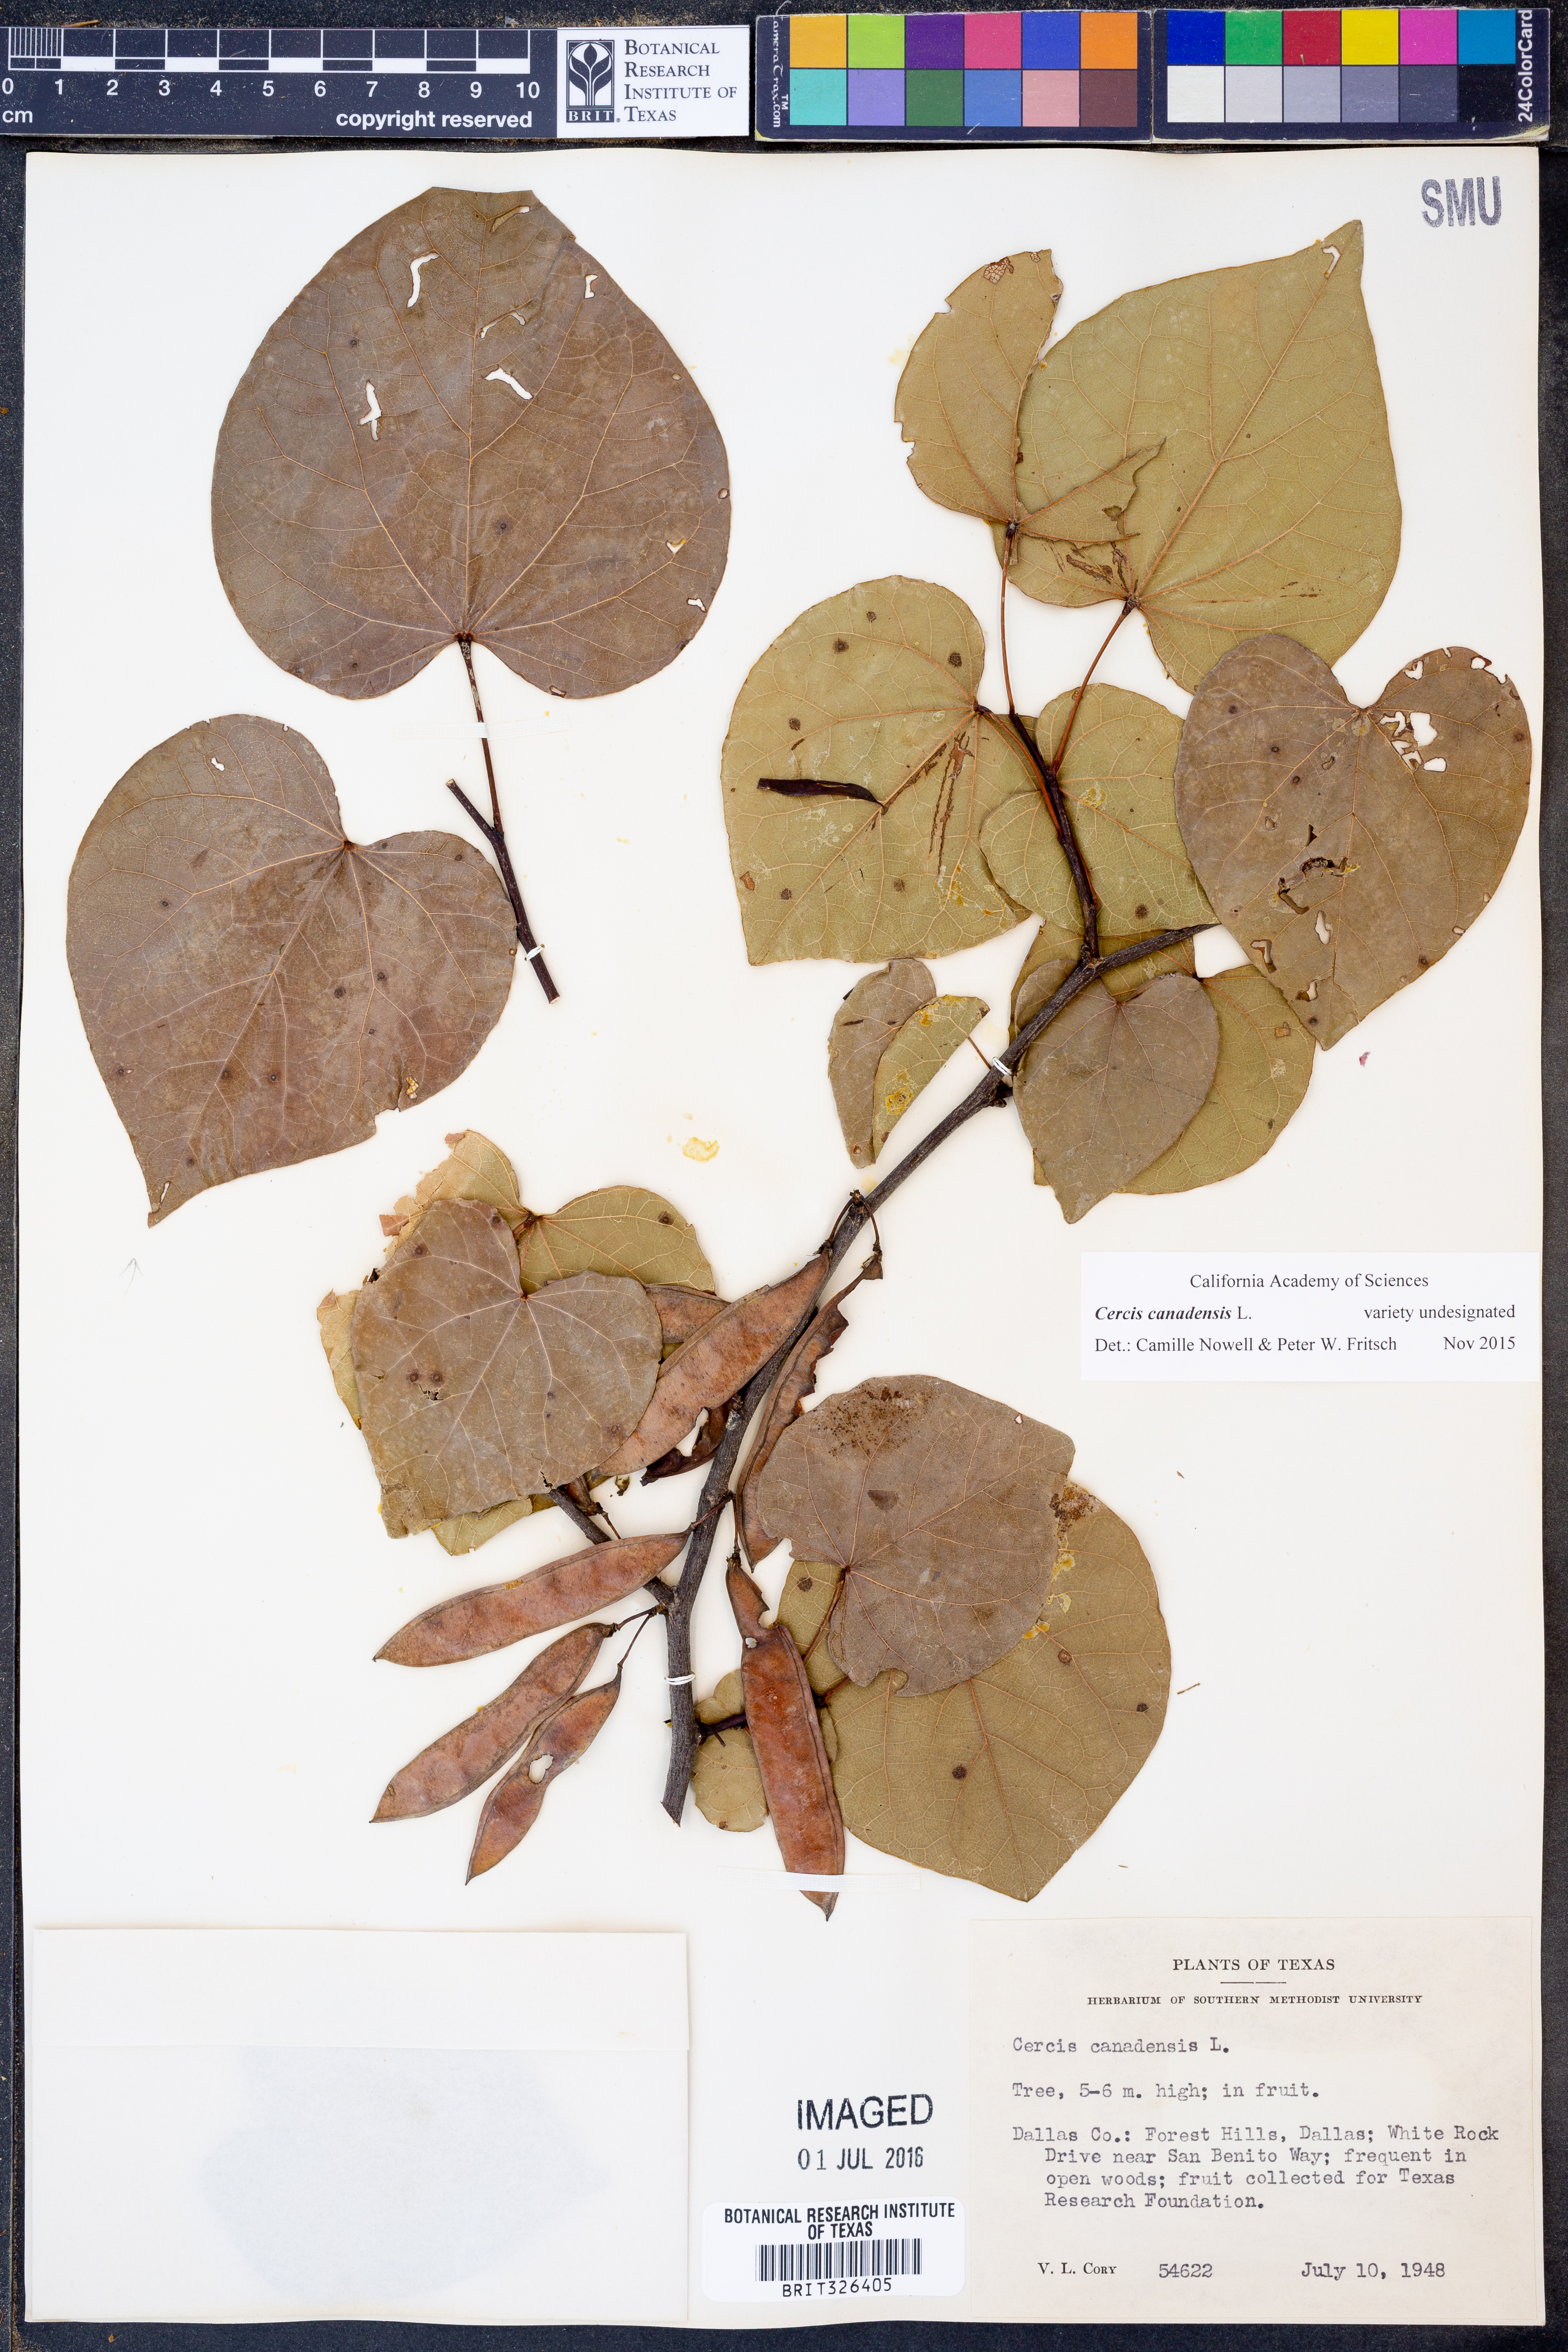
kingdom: Plantae
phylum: Tracheophyta
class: Magnoliopsida
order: Fabales
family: Fabaceae
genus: Cercis
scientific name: Cercis canadensis
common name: Eastern redbud
